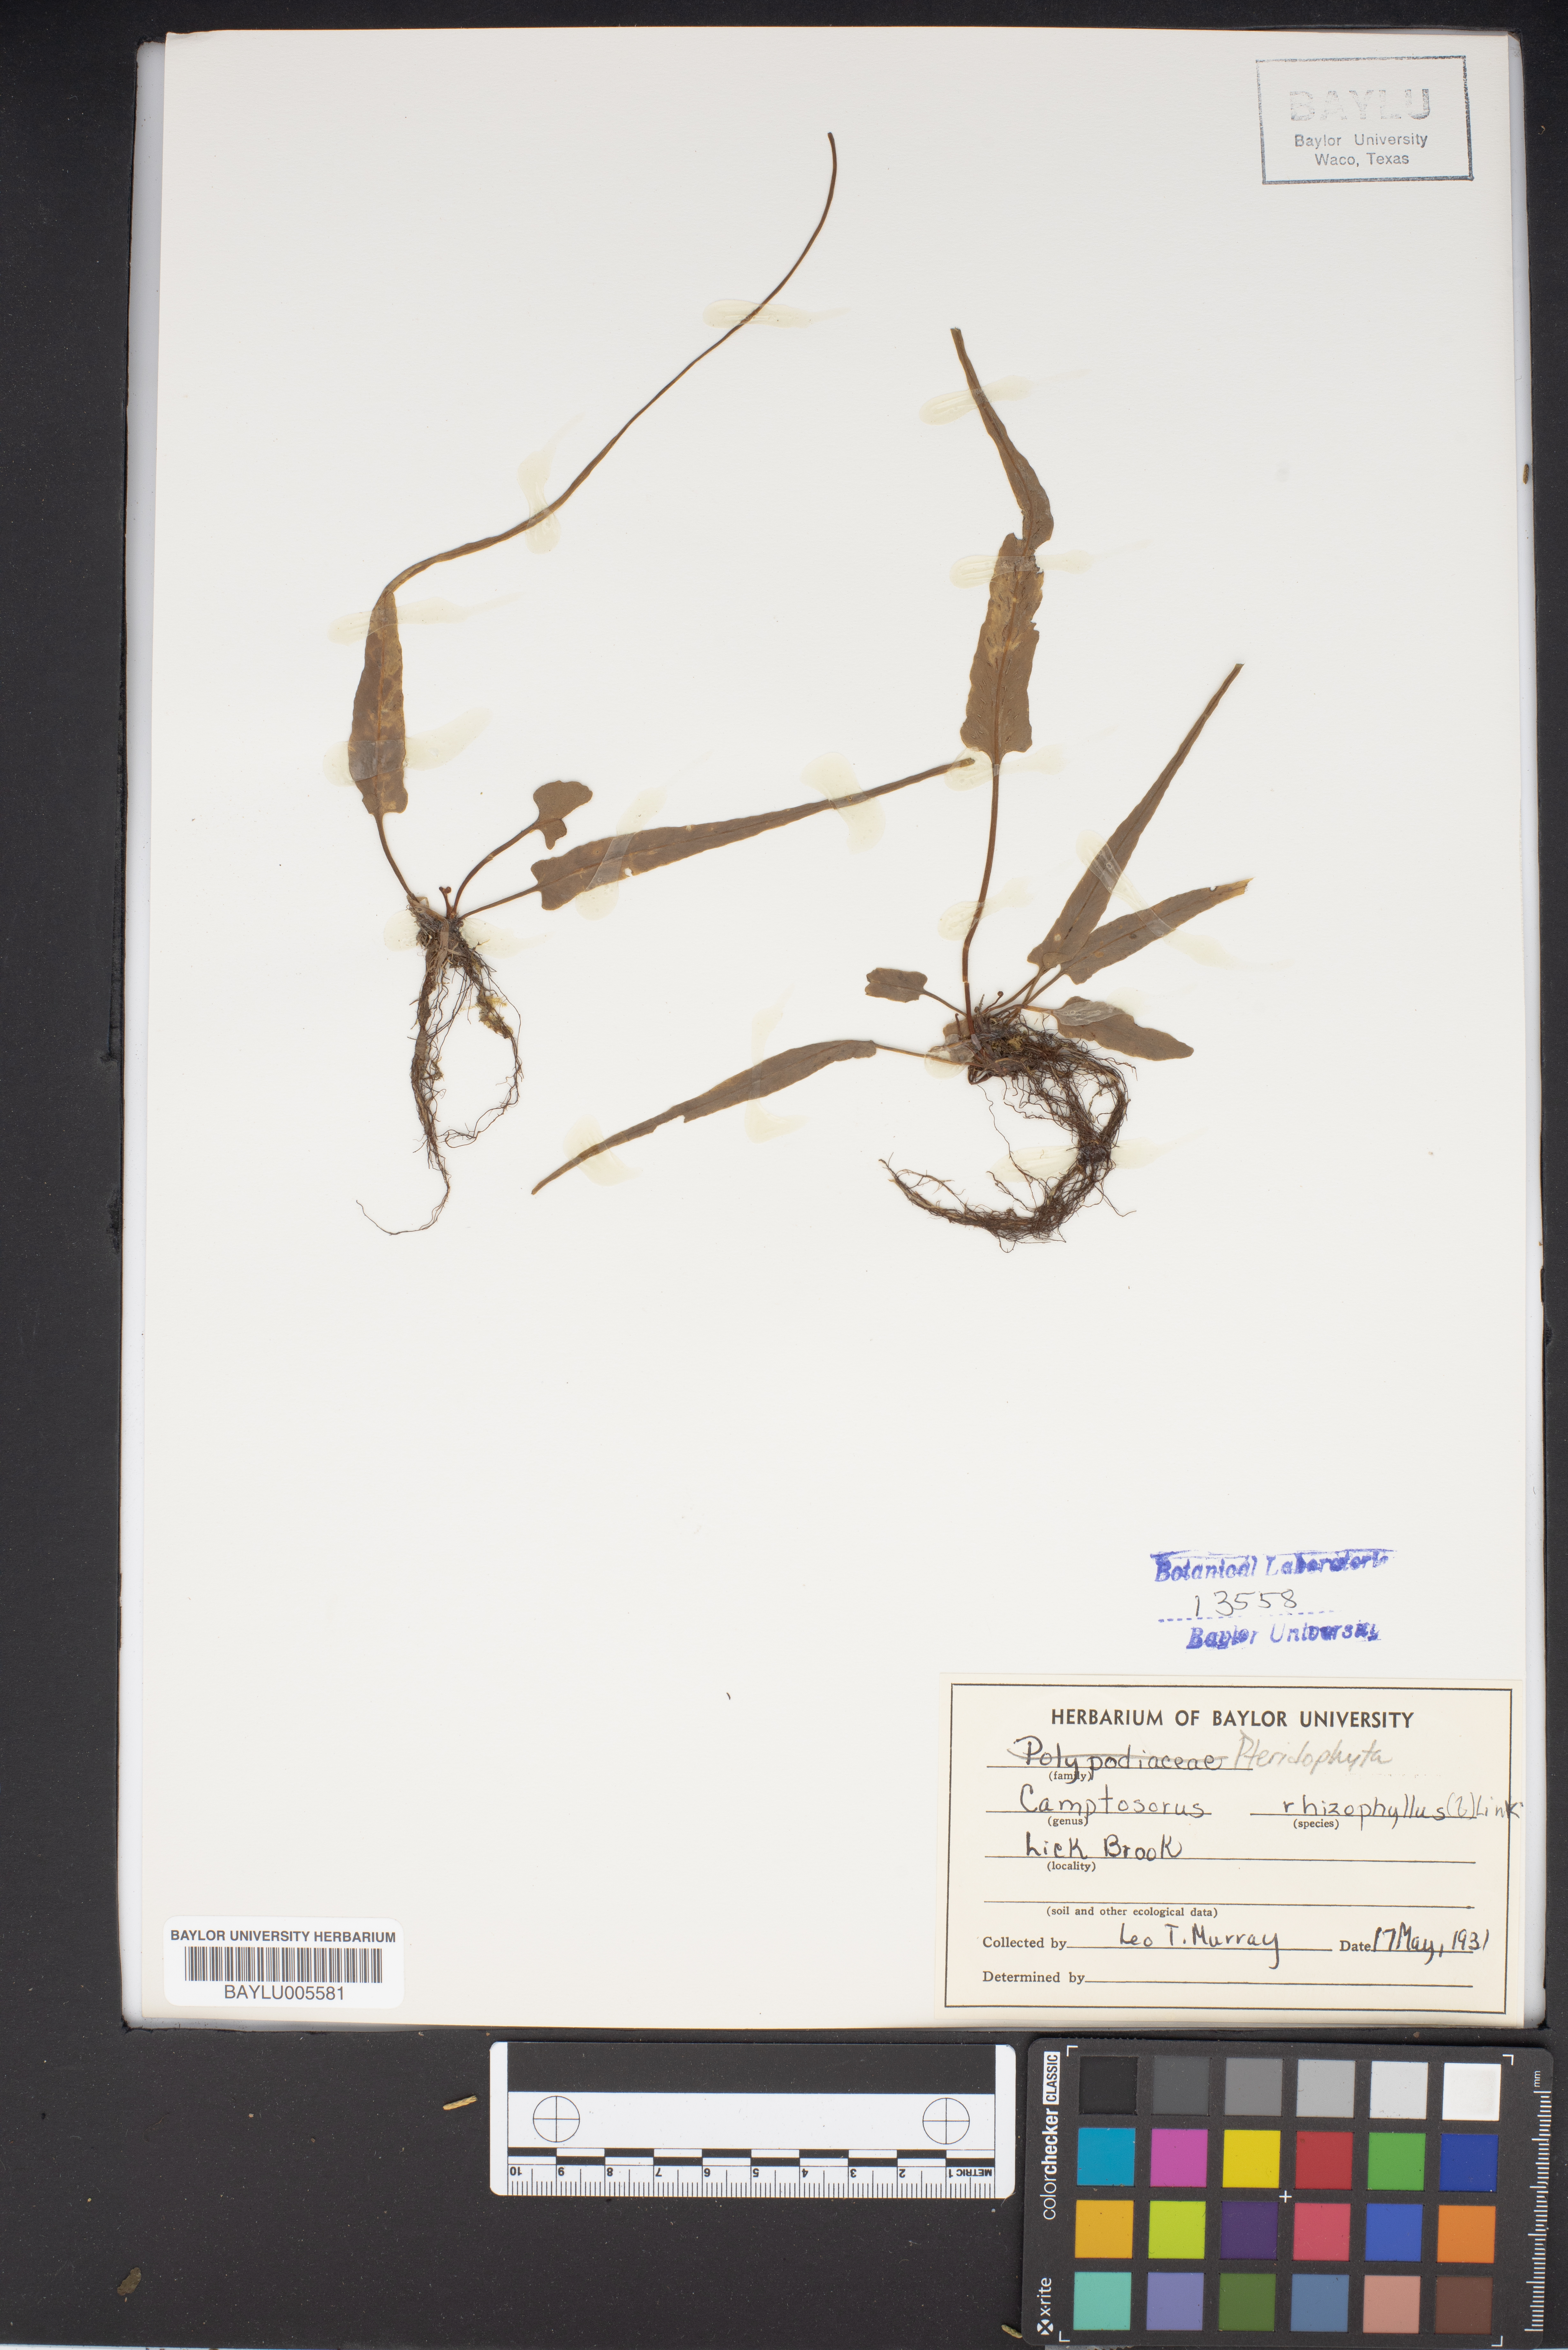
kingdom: Plantae
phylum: Tracheophyta
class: Polypodiopsida
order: Polypodiales
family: Aspleniaceae
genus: Asplenium
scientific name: Asplenium rhizophyllum
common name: Walking fern
